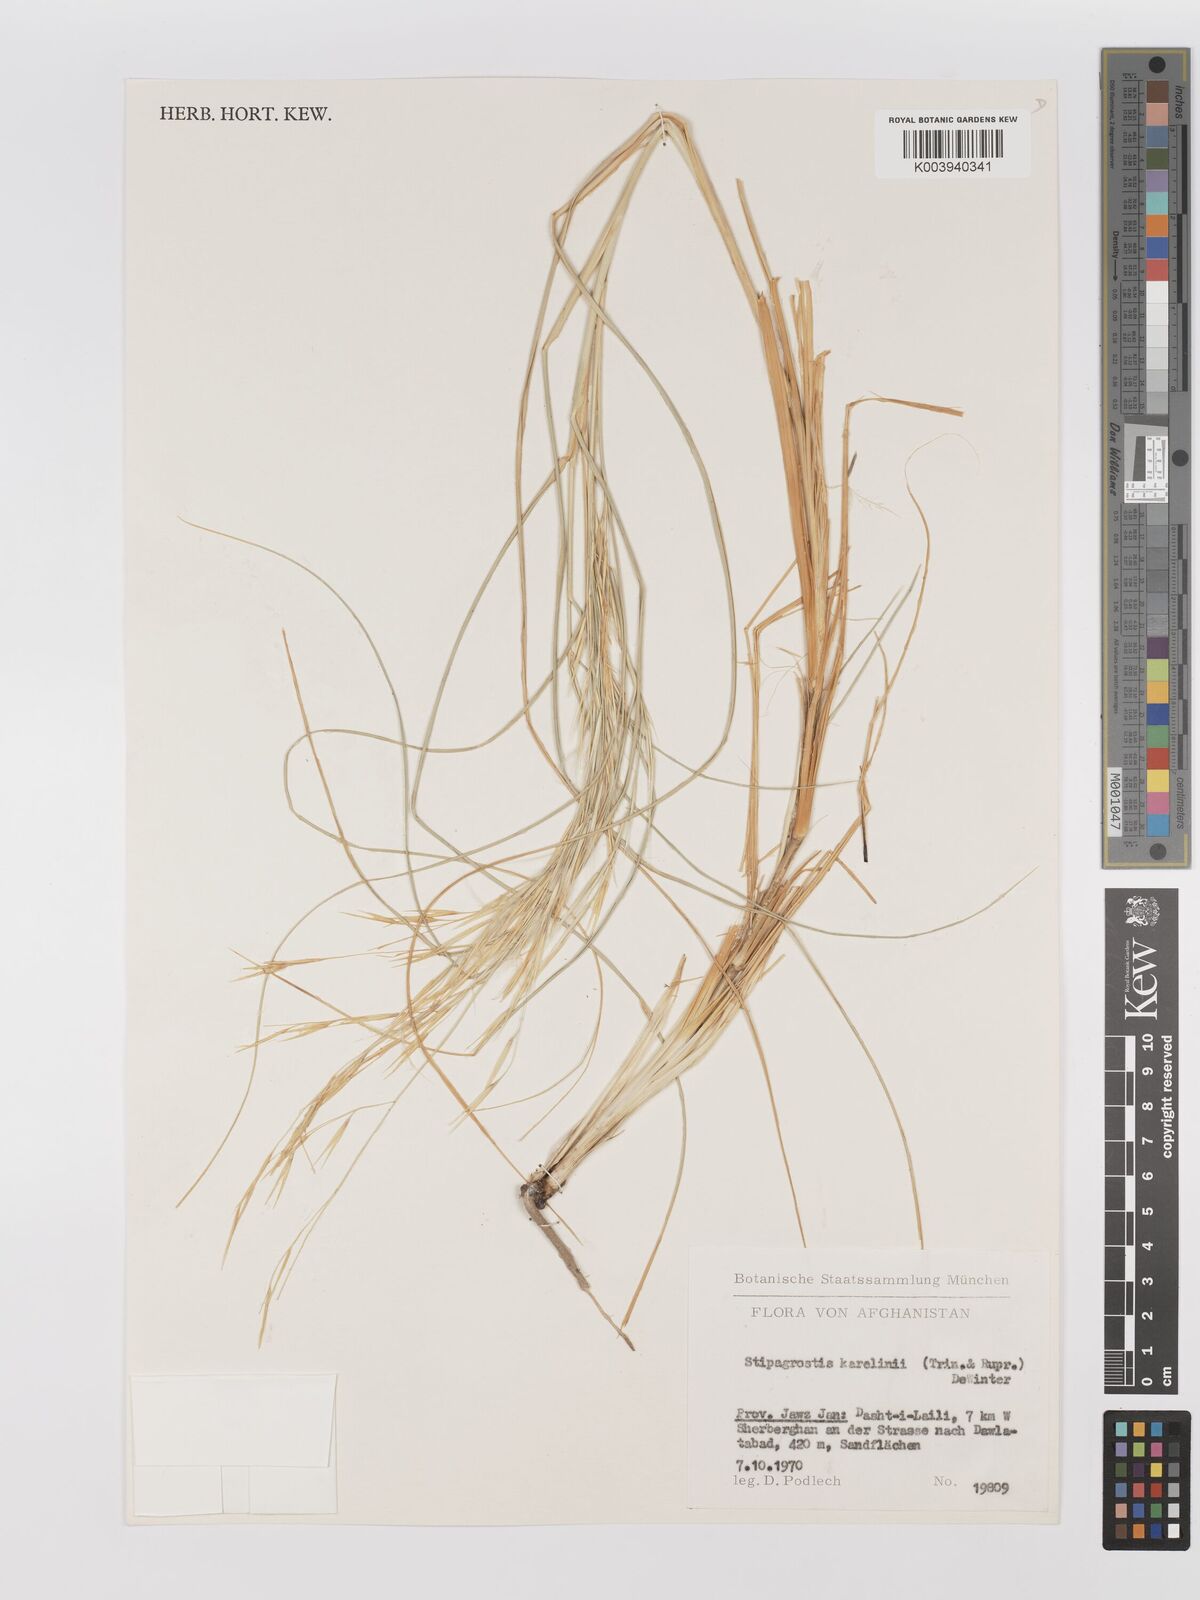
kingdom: Plantae
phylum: Tracheophyta
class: Liliopsida
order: Poales
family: Poaceae
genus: Stipagrostis
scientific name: Stipagrostis karelinii
